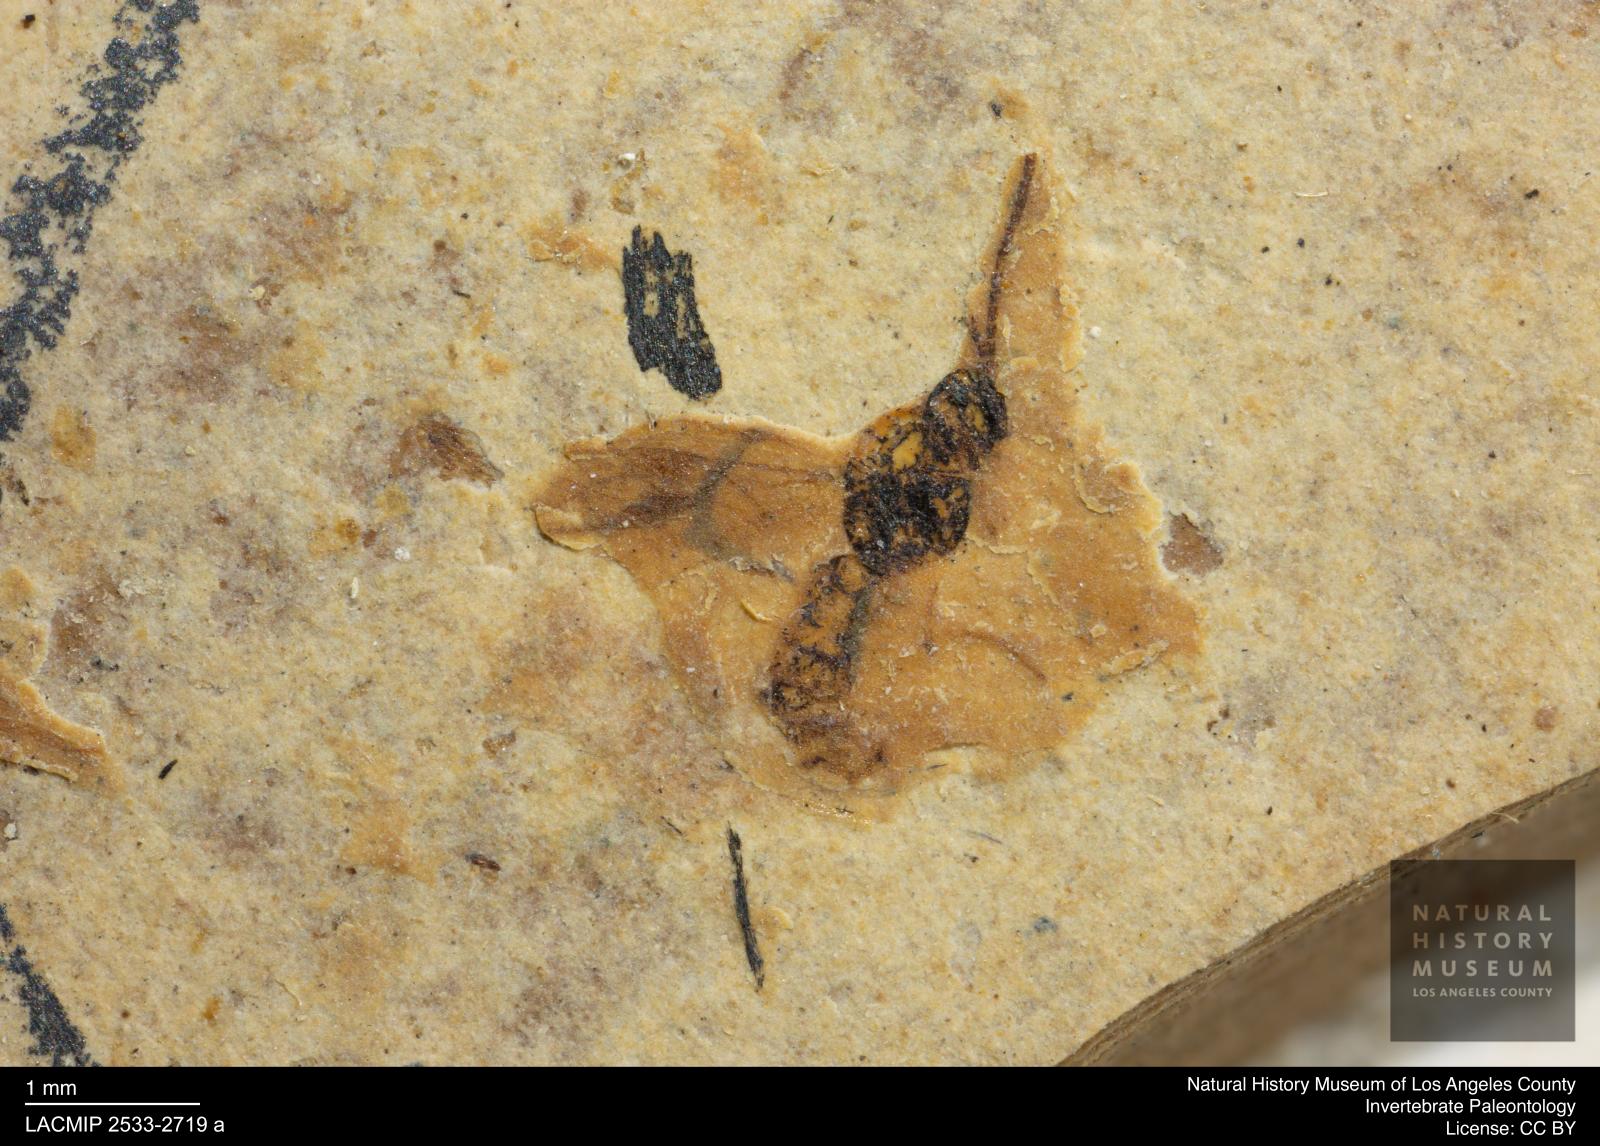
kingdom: Animalia
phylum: Arthropoda
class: Insecta
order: Hymenoptera
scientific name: Hymenoptera
